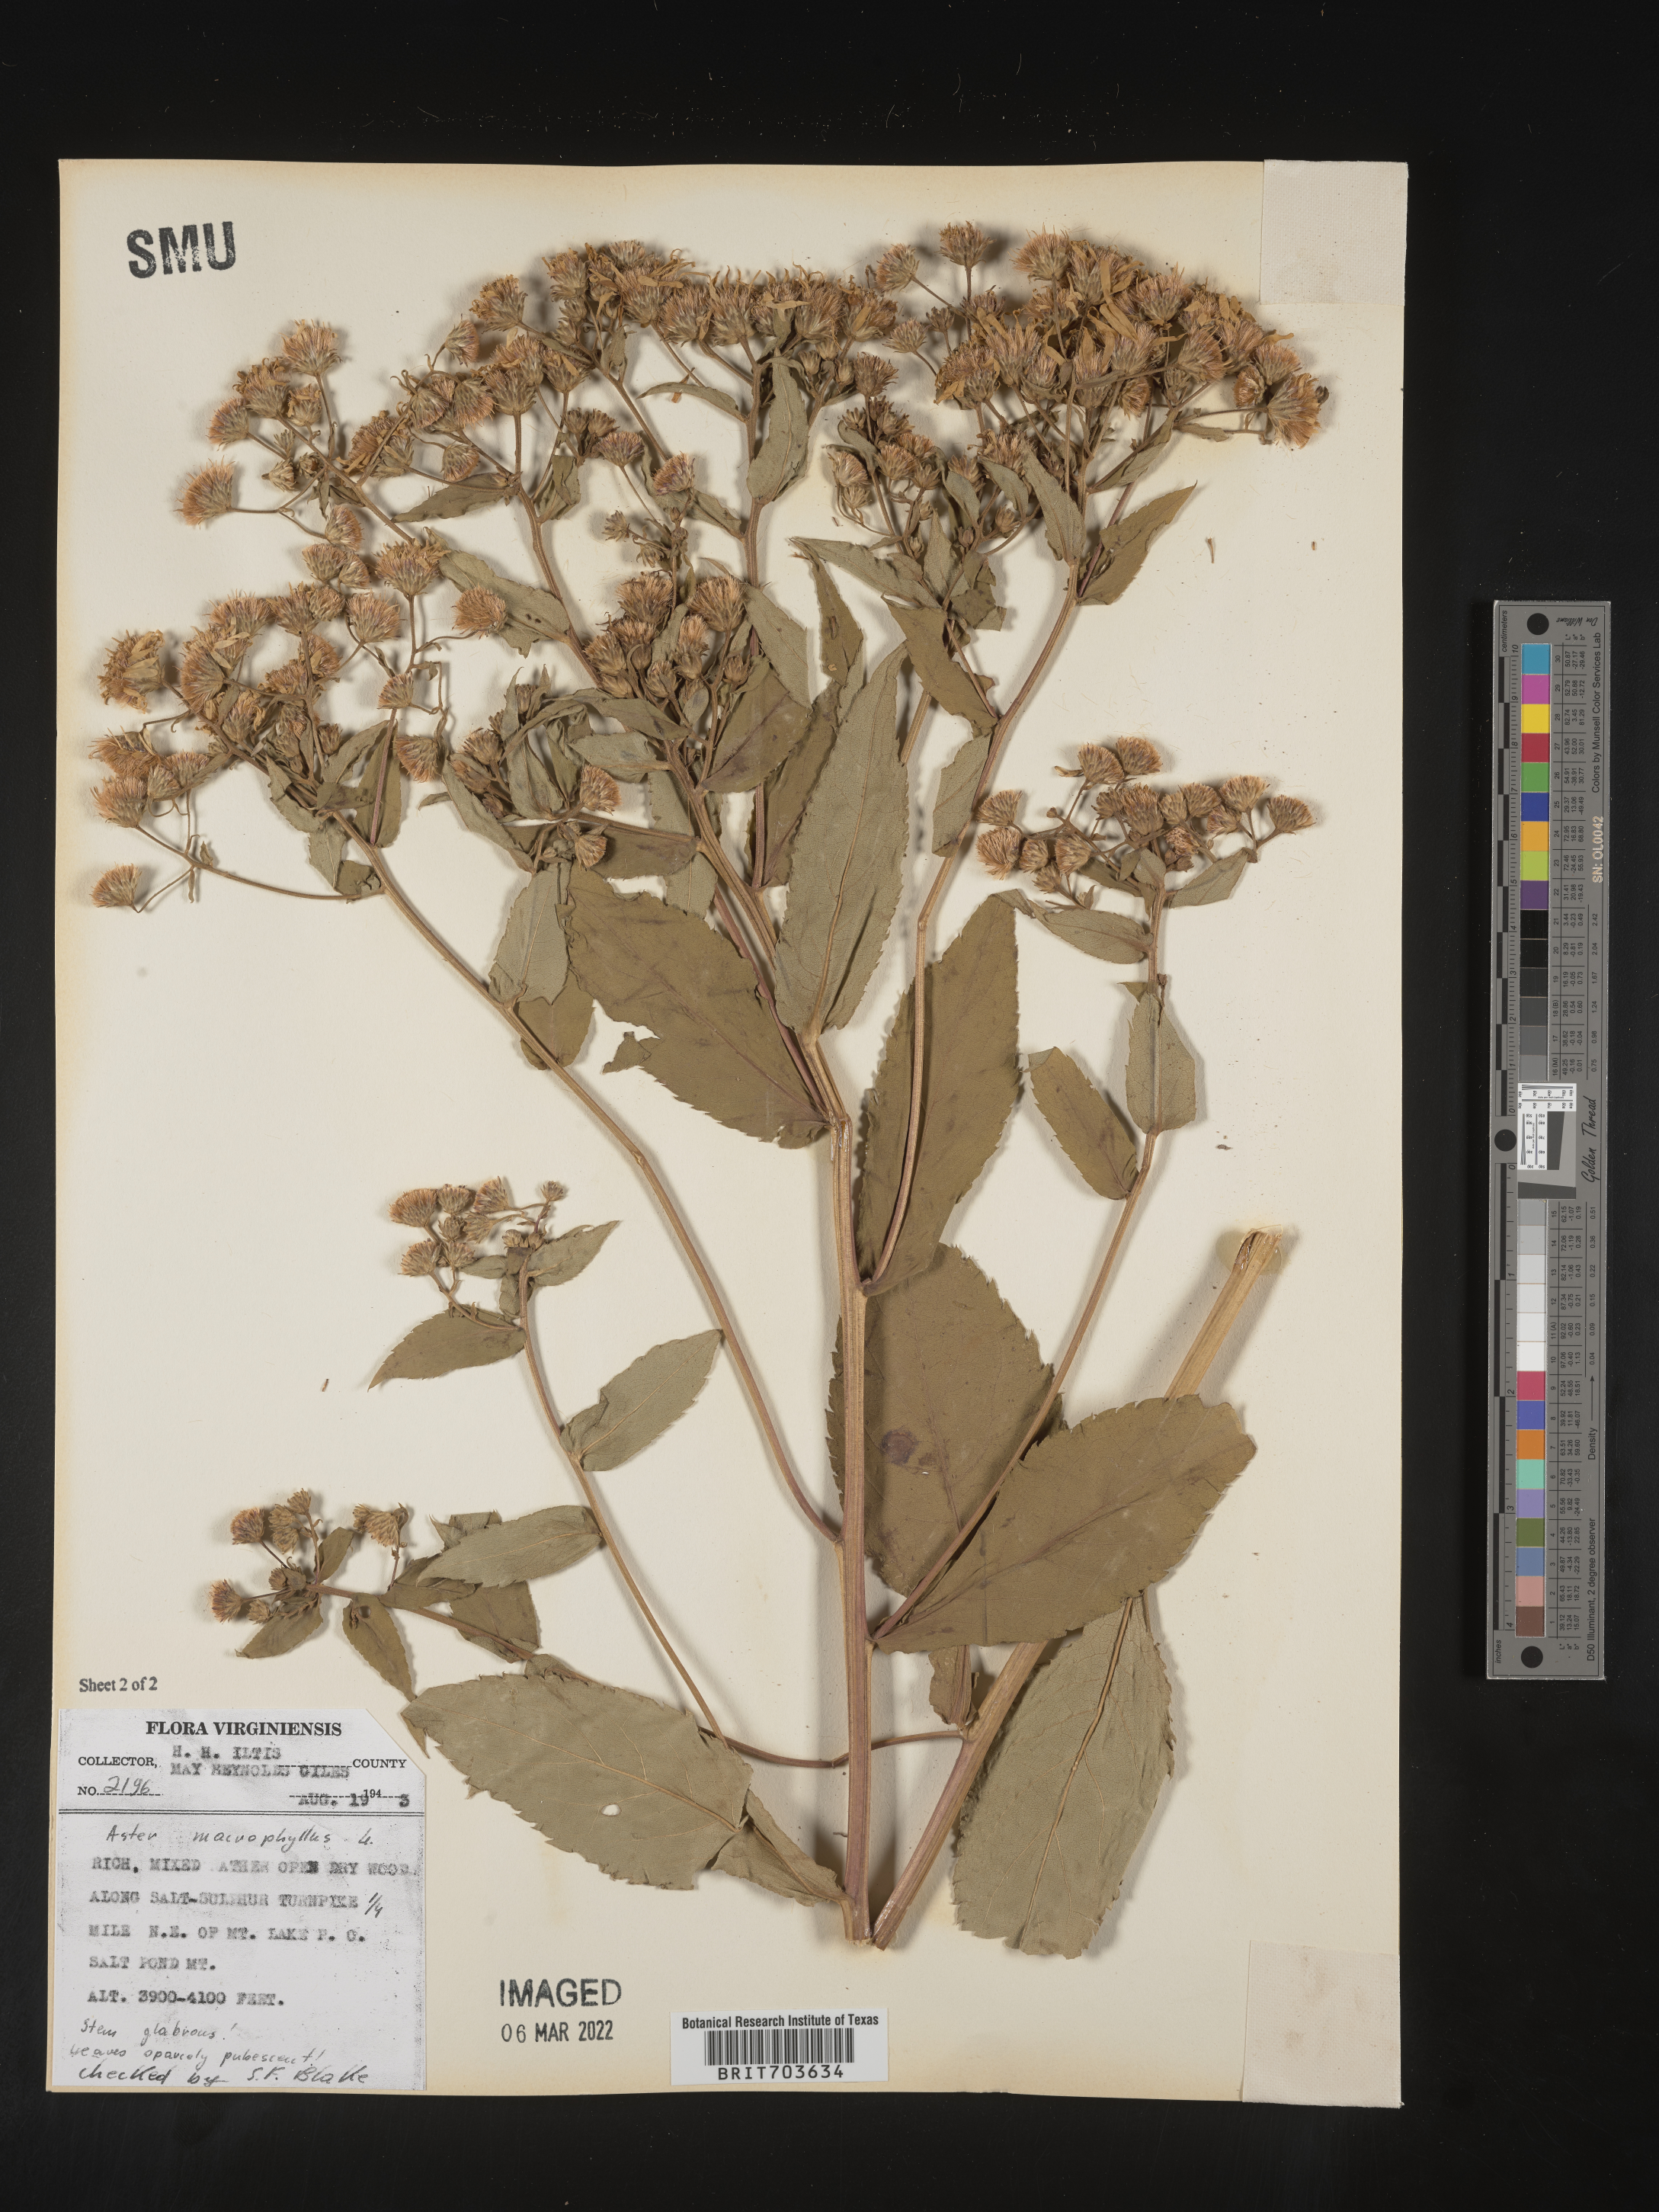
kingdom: Plantae
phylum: Tracheophyta
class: Magnoliopsida
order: Asterales
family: Asteraceae
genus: Eurybia
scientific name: Eurybia macrophylla
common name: Big-leaved aster
